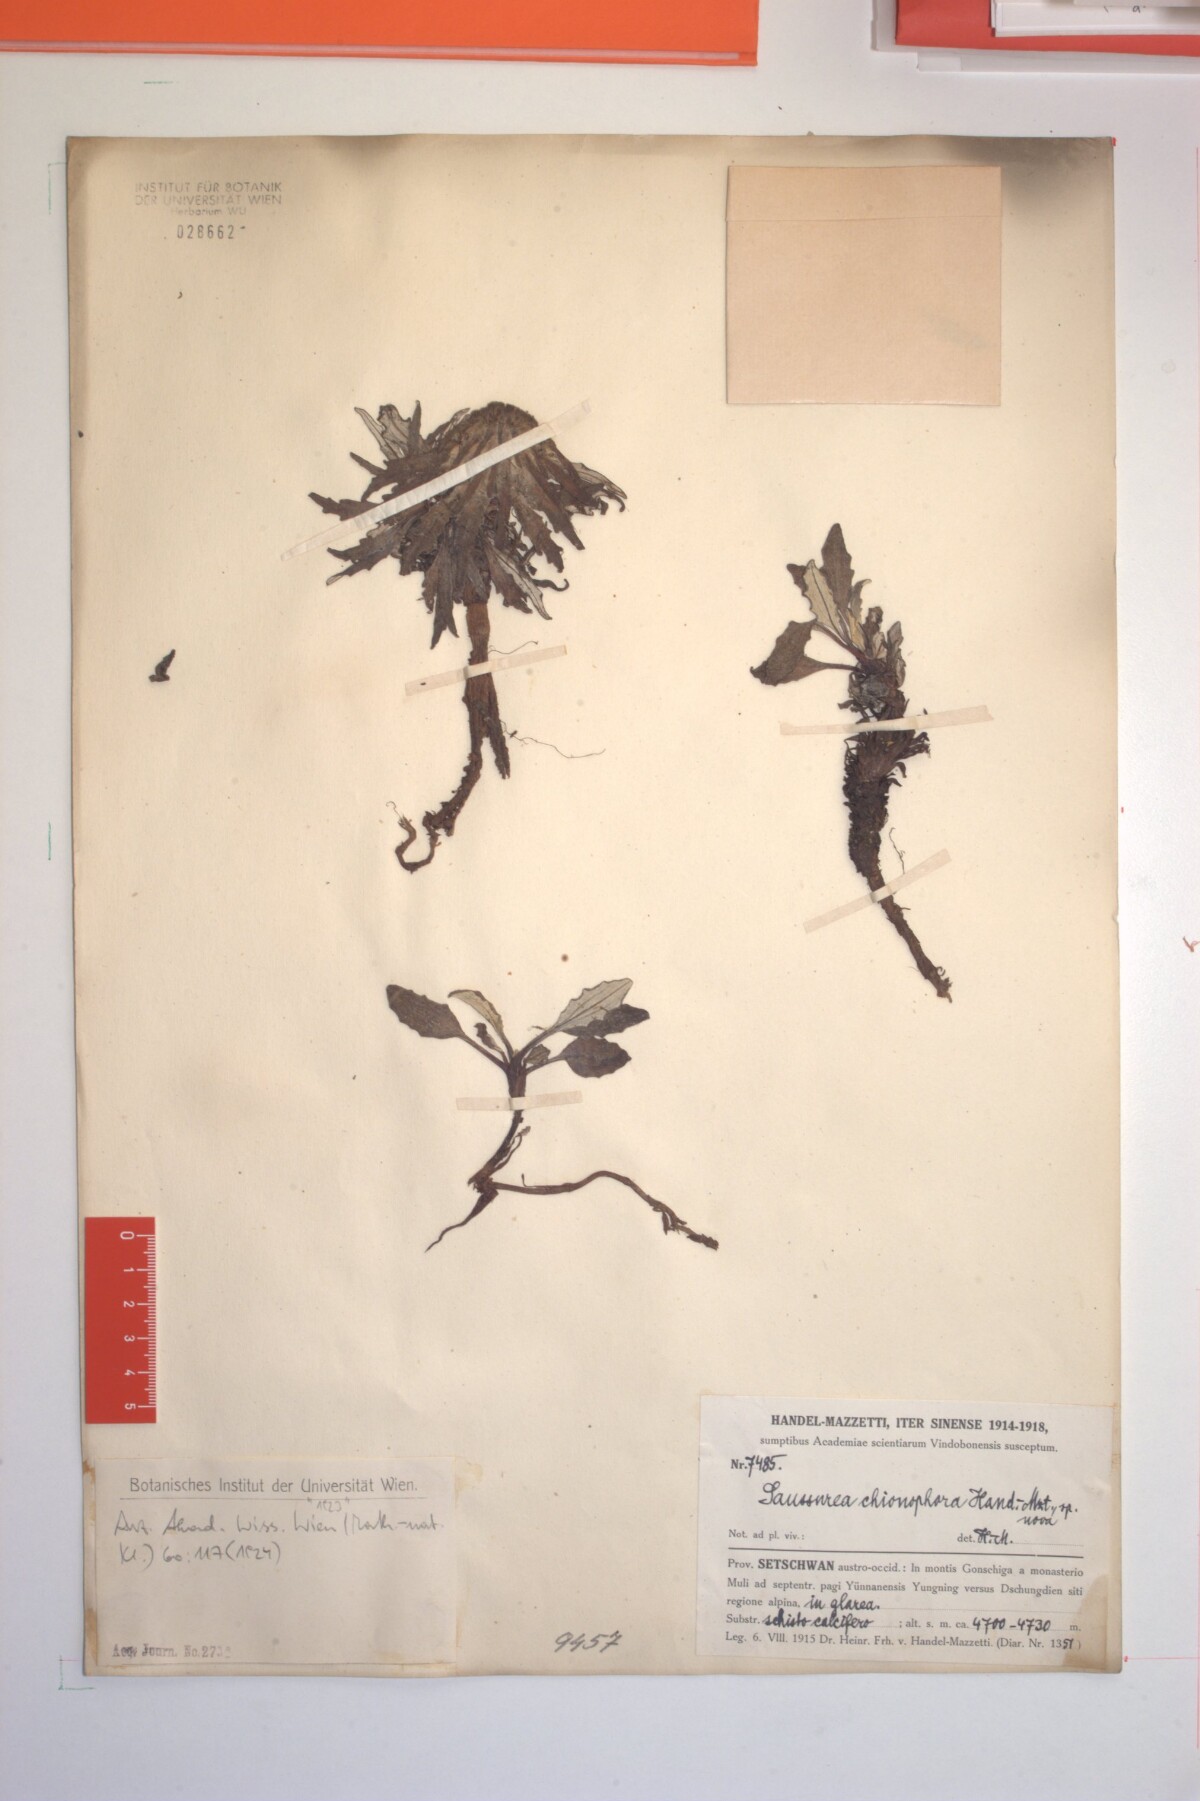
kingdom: Plantae
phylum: Tracheophyta
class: Magnoliopsida
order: Asterales
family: Asteraceae
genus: Saussurea
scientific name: Saussurea quercifolia
